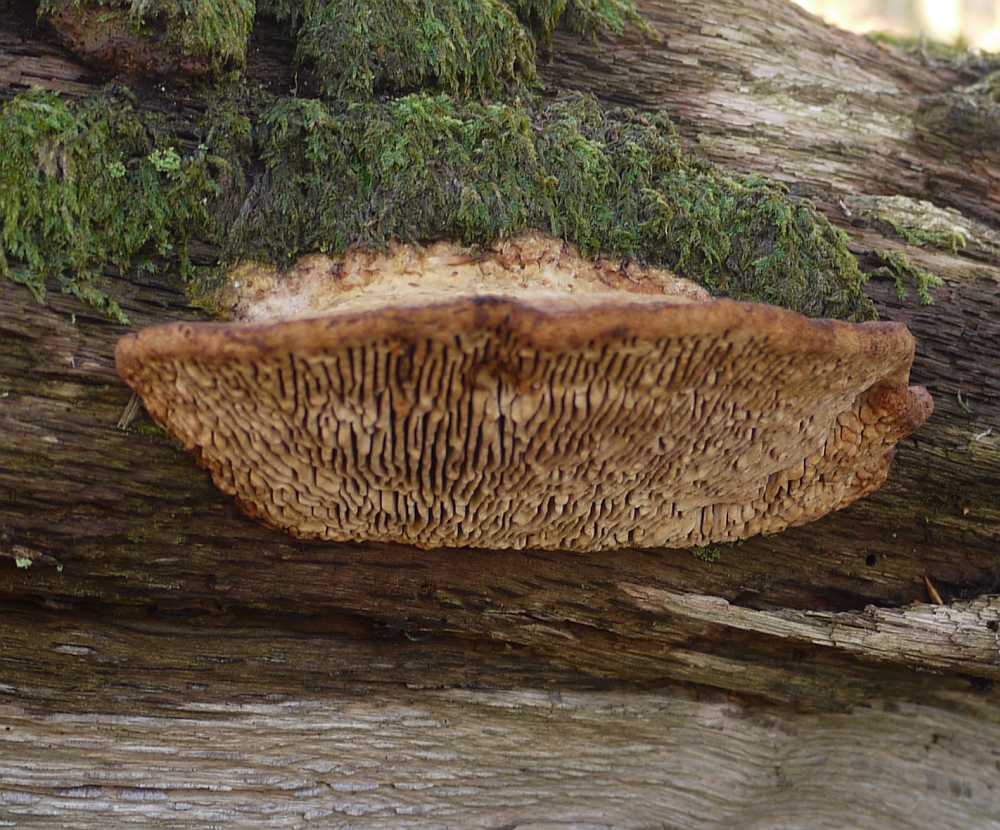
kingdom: Fungi
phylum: Basidiomycota
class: Agaricomycetes
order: Polyporales
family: Fomitopsidaceae
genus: Daedalea
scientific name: Daedalea quercina
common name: ege-labyrintsvamp
